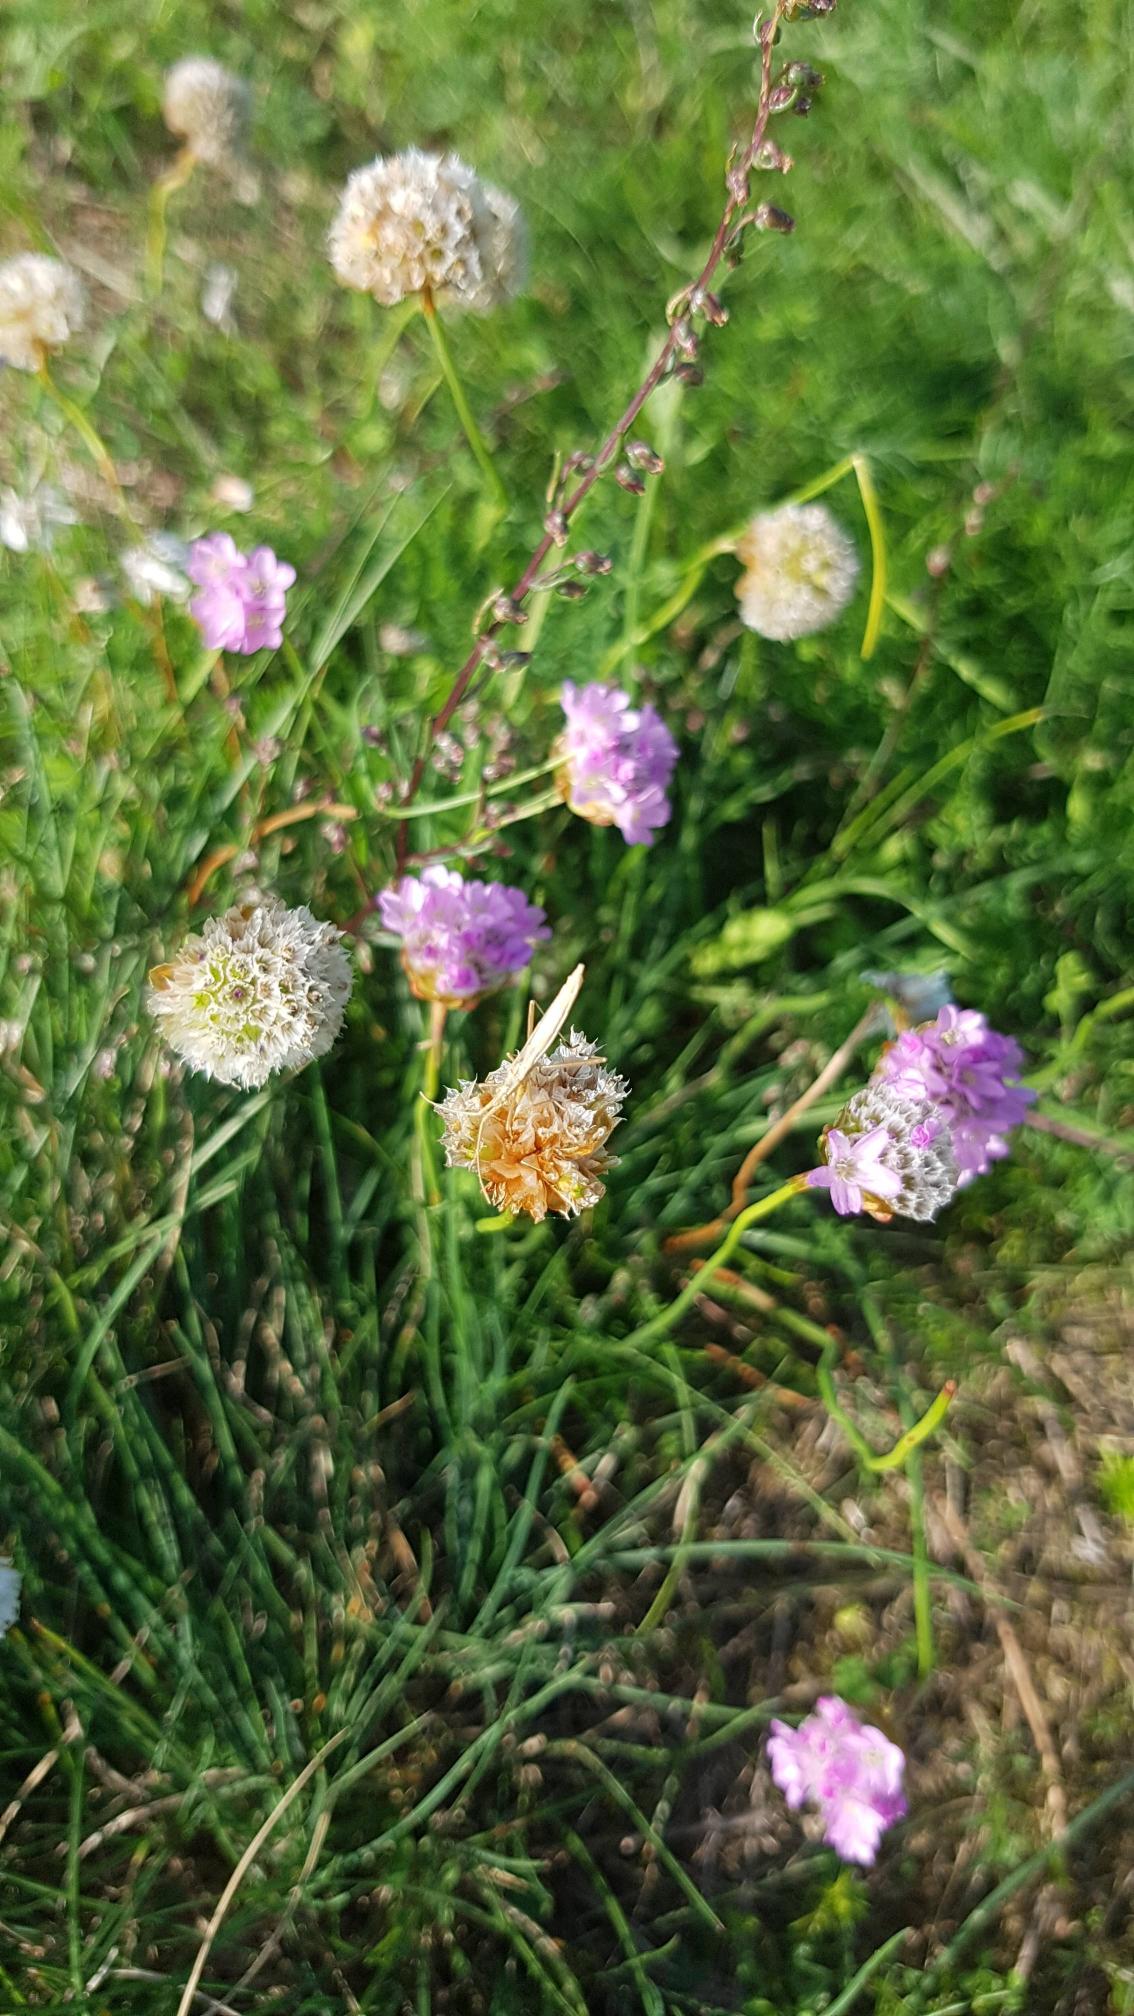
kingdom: Plantae
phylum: Tracheophyta
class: Magnoliopsida
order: Caryophyllales
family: Plumbaginaceae
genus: Armeria
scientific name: Armeria maritima
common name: Engelskgræs
